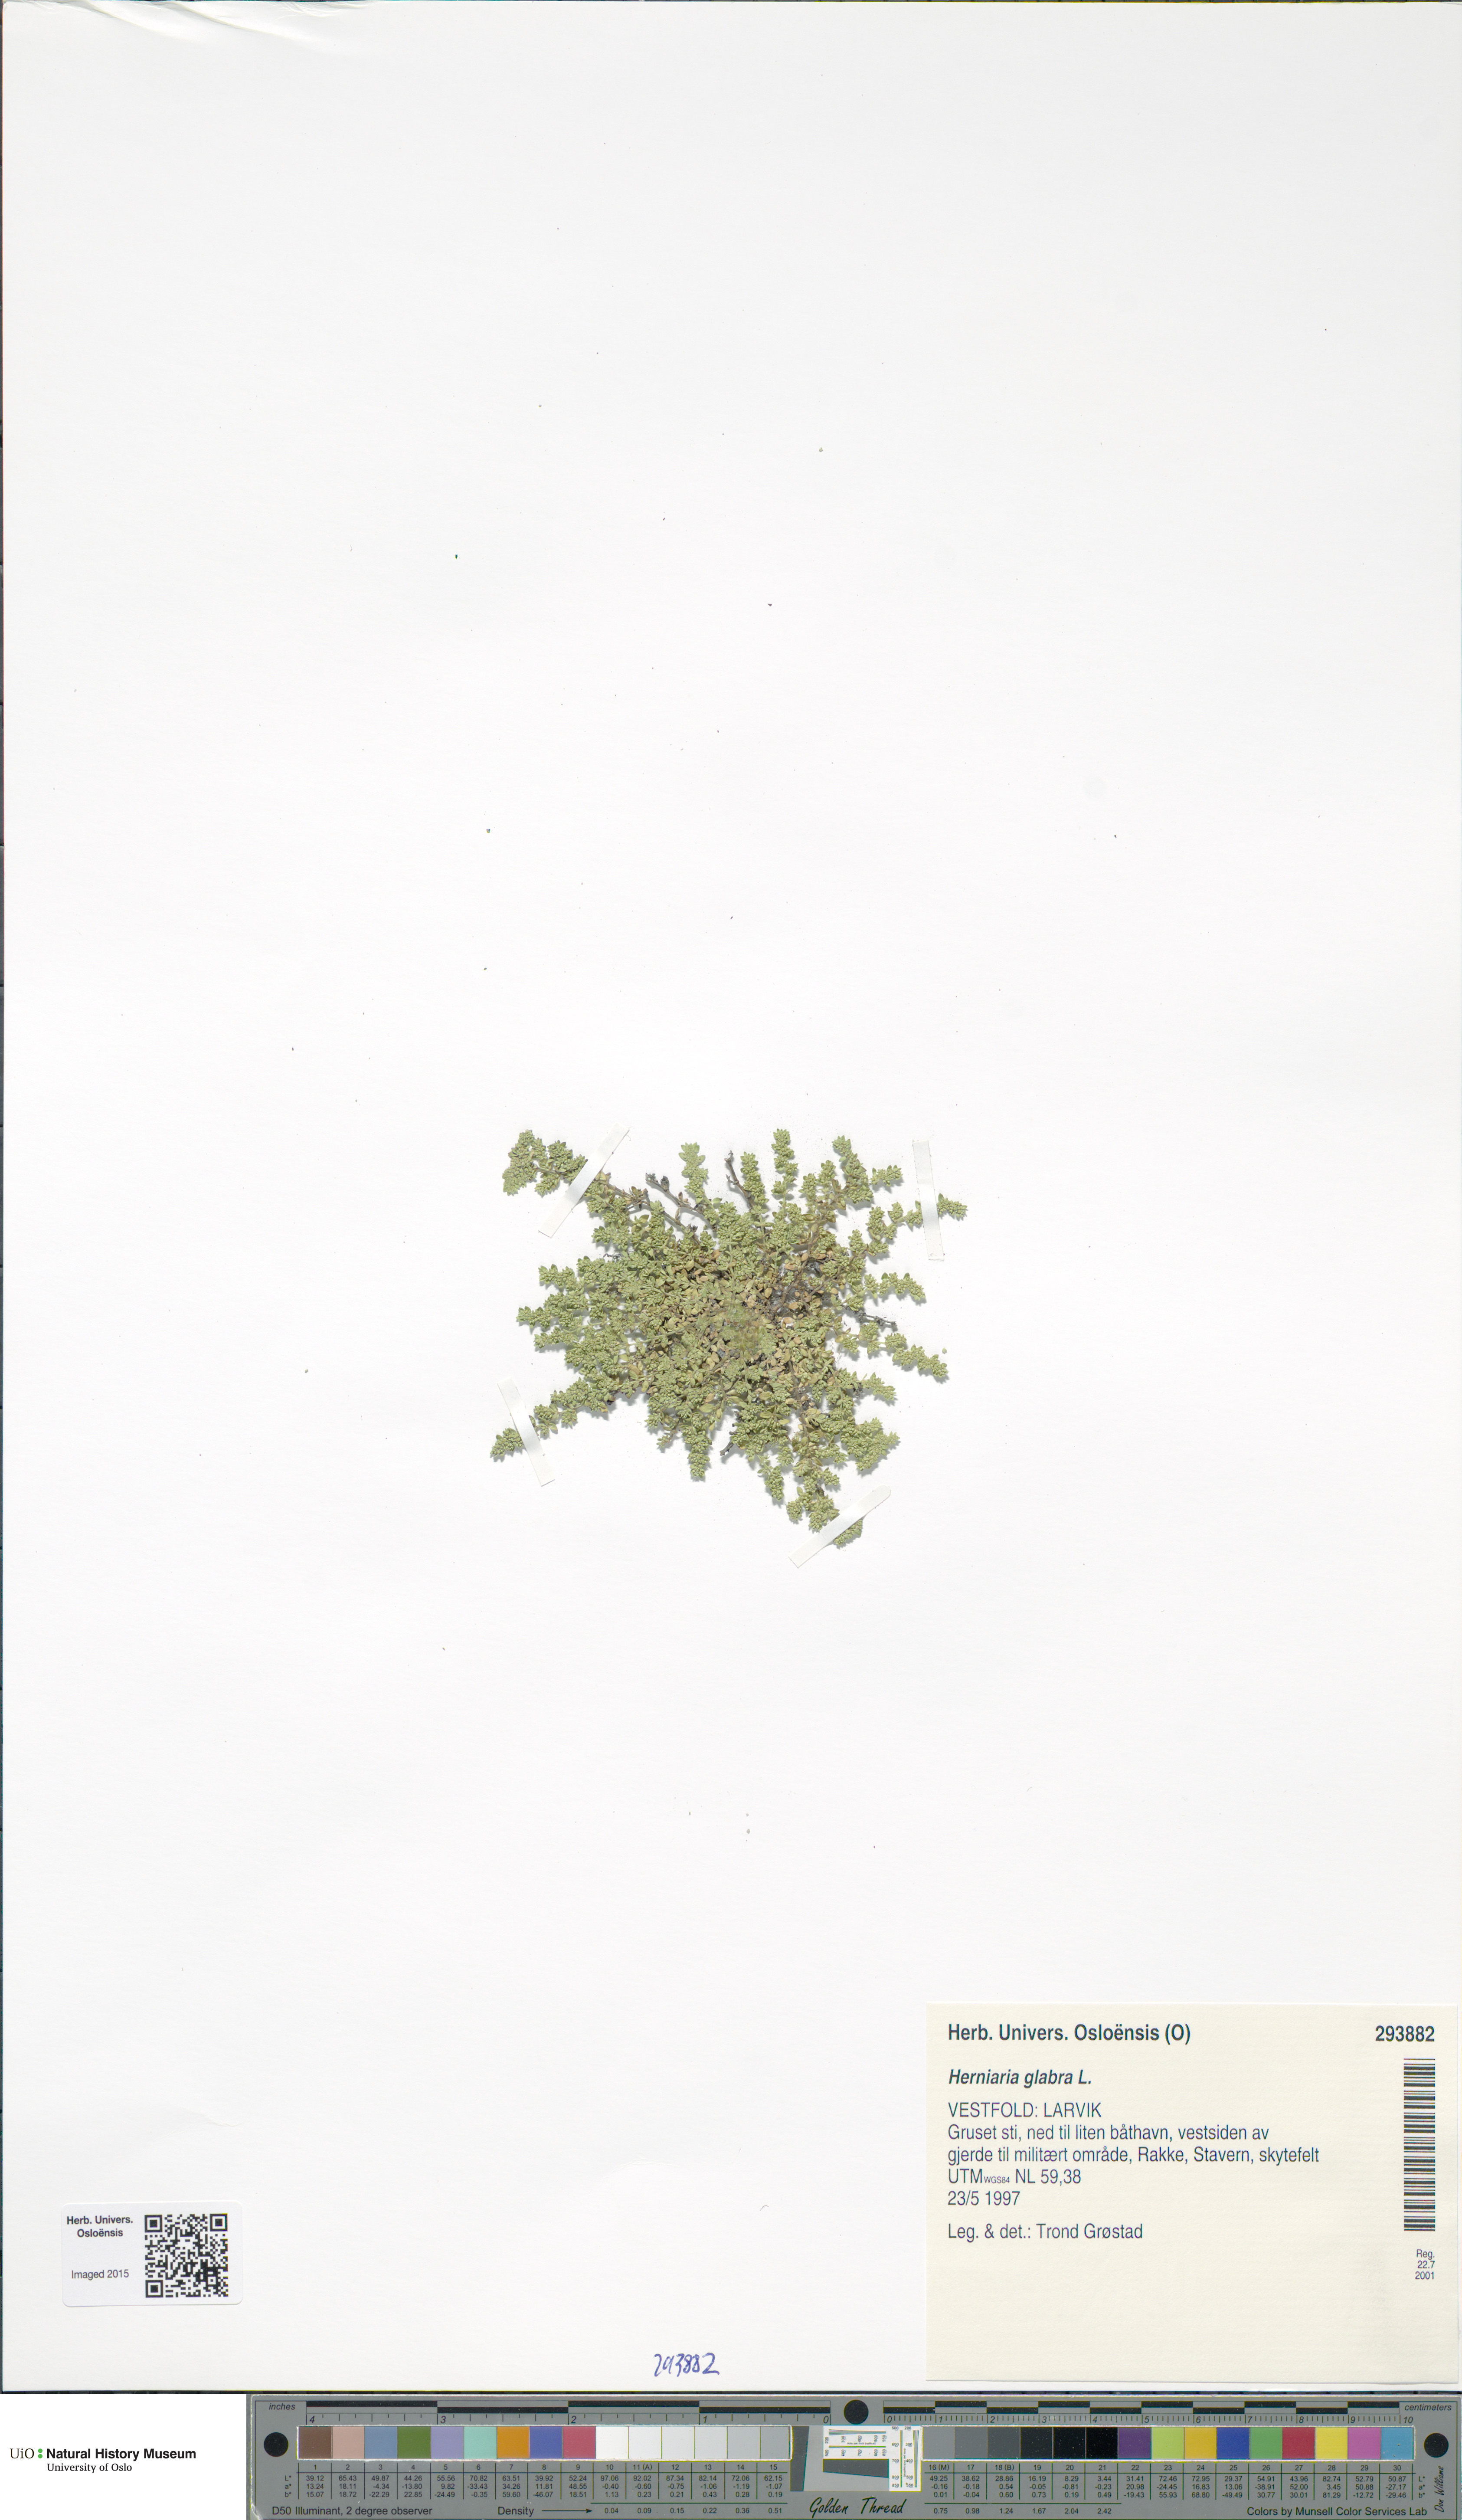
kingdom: Plantae
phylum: Tracheophyta
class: Magnoliopsida
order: Caryophyllales
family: Caryophyllaceae
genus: Herniaria
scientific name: Herniaria glabra
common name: Smooth rupturewort
